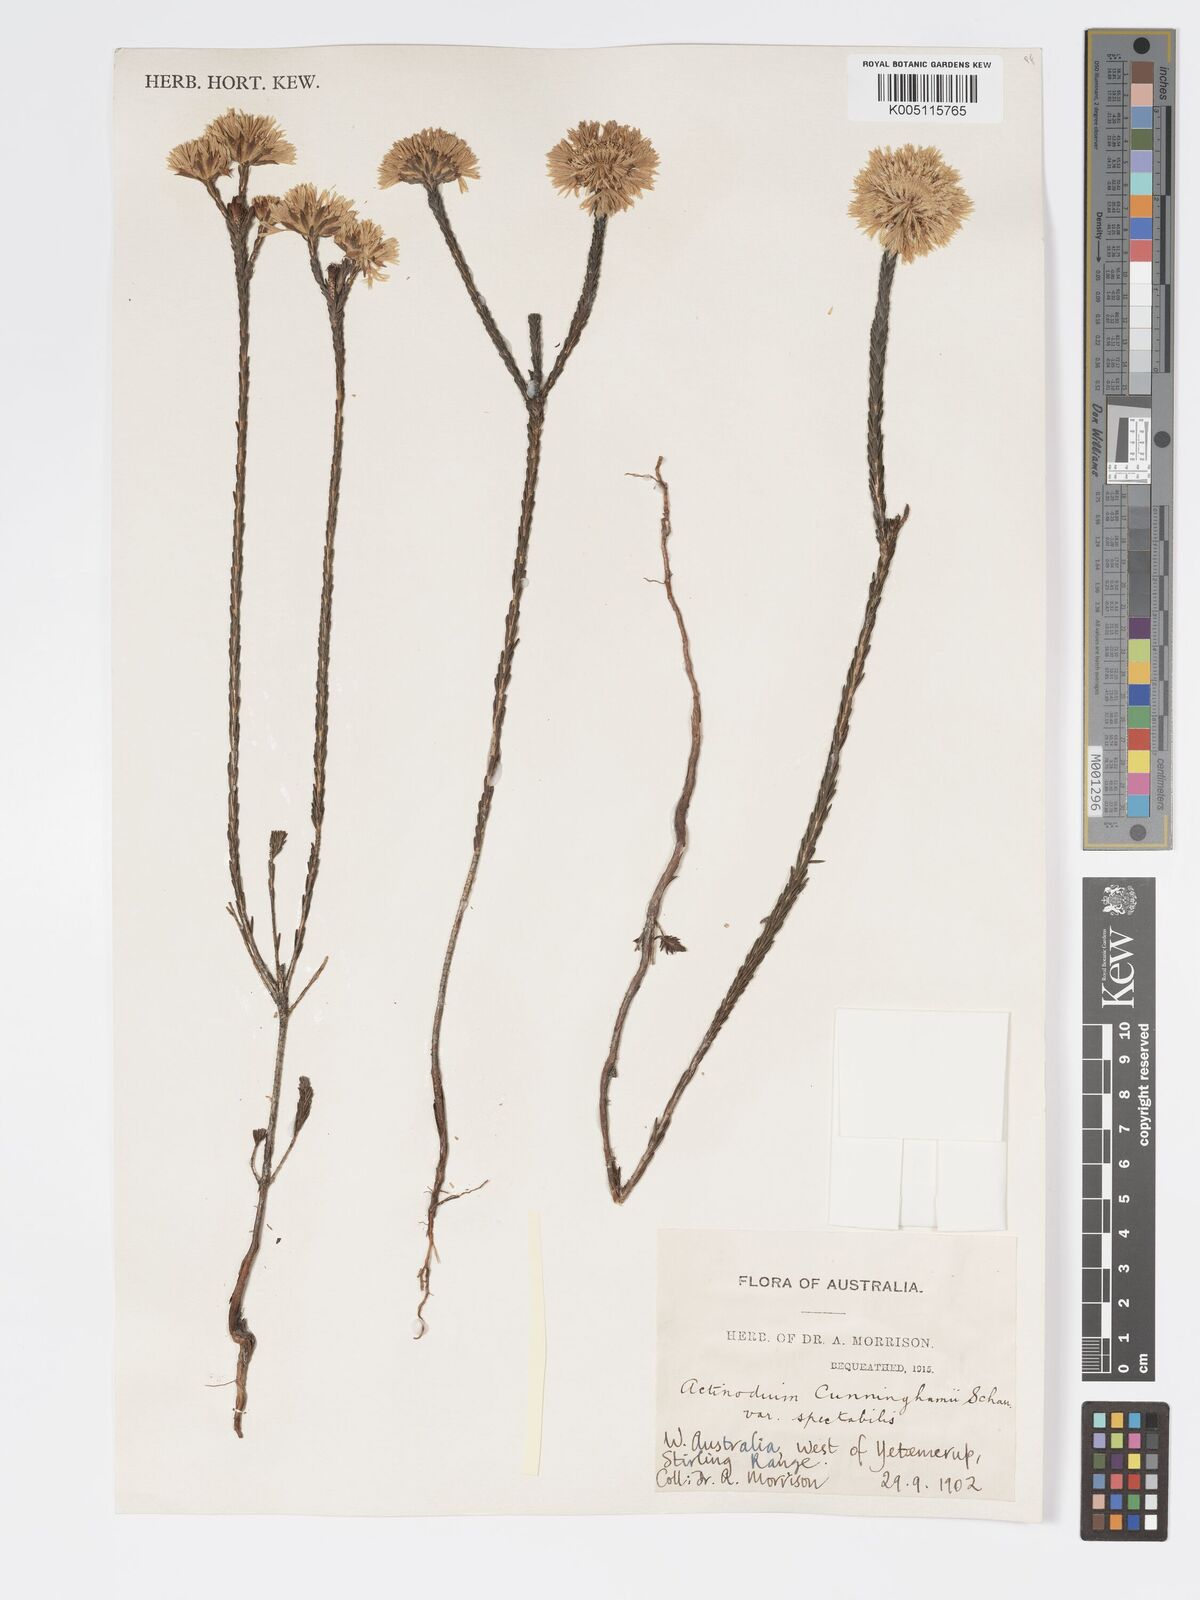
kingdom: Plantae
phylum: Tracheophyta
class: Magnoliopsida
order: Myrtales
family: Myrtaceae
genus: Actinodium
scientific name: Actinodium cunninghamii
